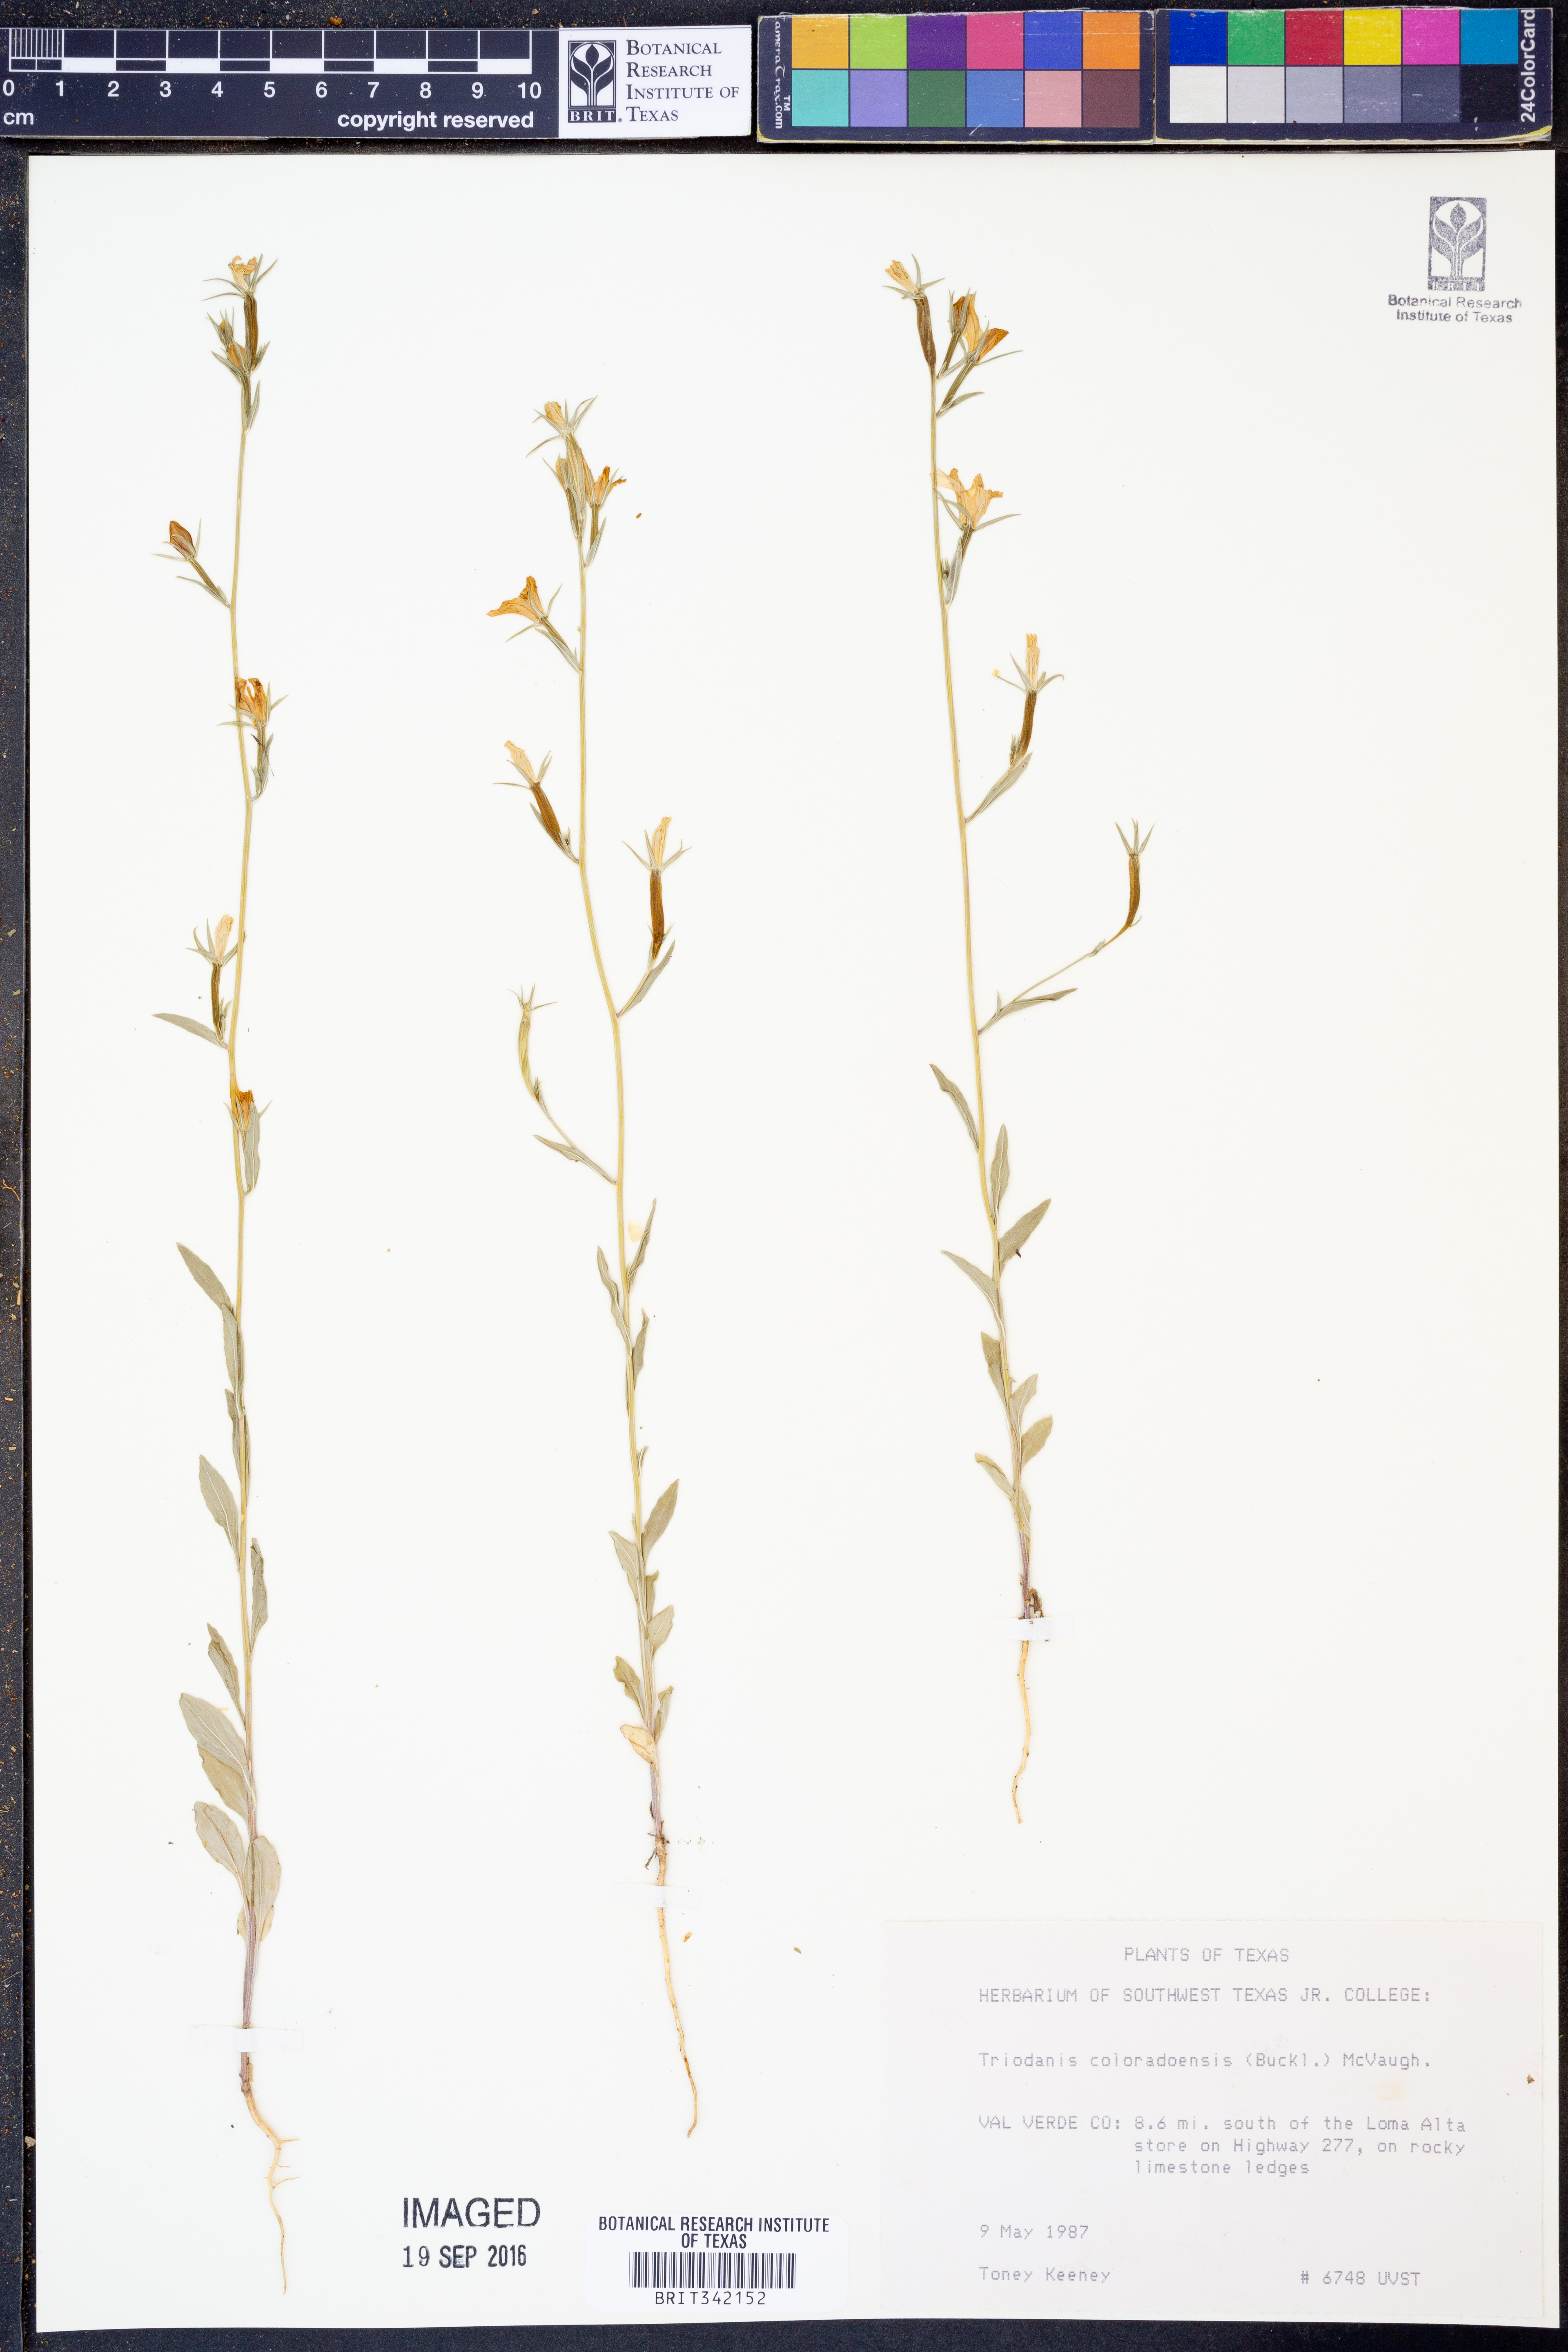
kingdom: Plantae
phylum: Tracheophyta
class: Magnoliopsida
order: Asterales
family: Campanulaceae
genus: Triodanis
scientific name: Triodanis coloradoensis
